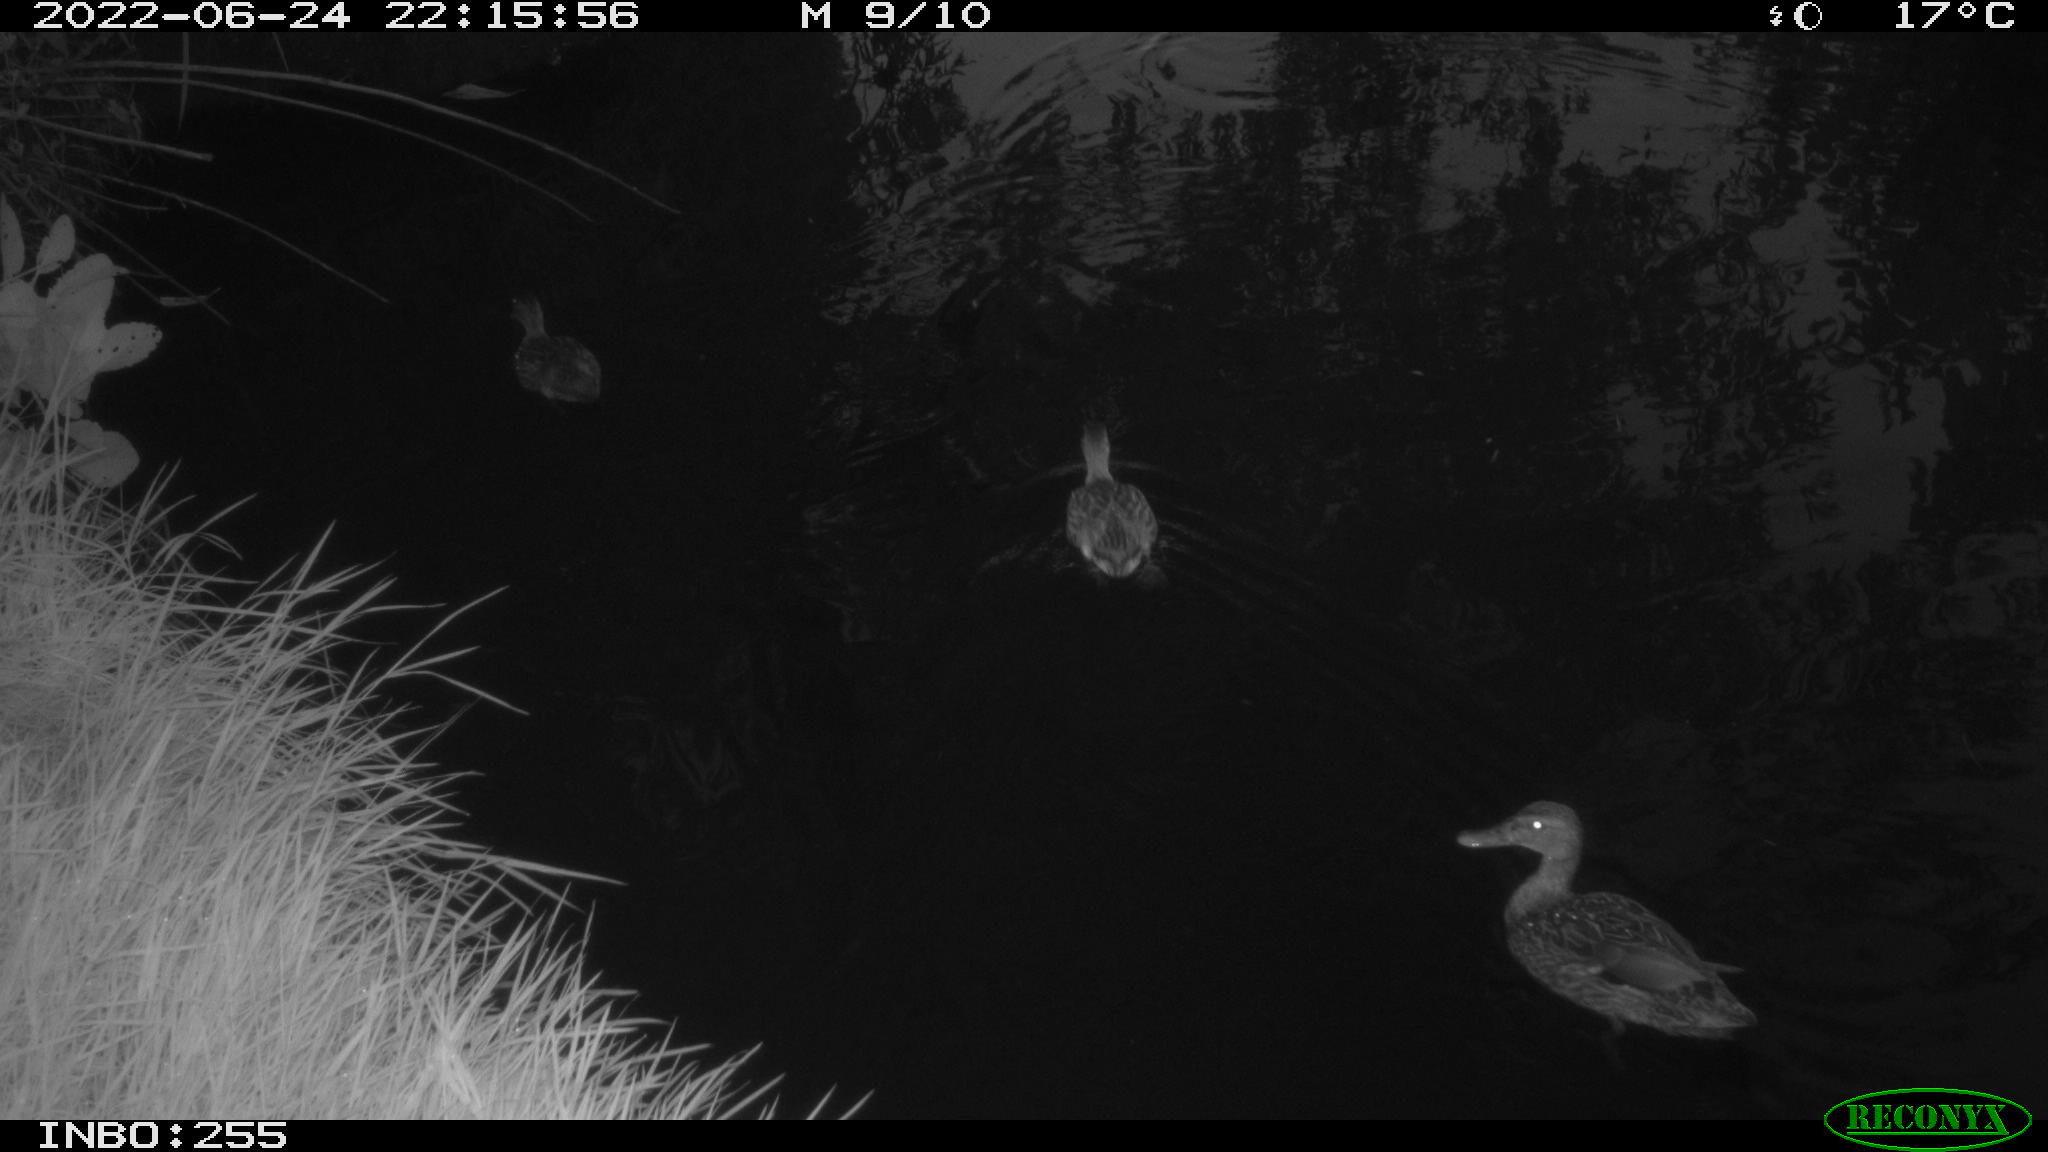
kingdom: Animalia
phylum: Chordata
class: Aves
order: Anseriformes
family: Anatidae
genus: Anas
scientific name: Anas platyrhynchos
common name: Mallard
